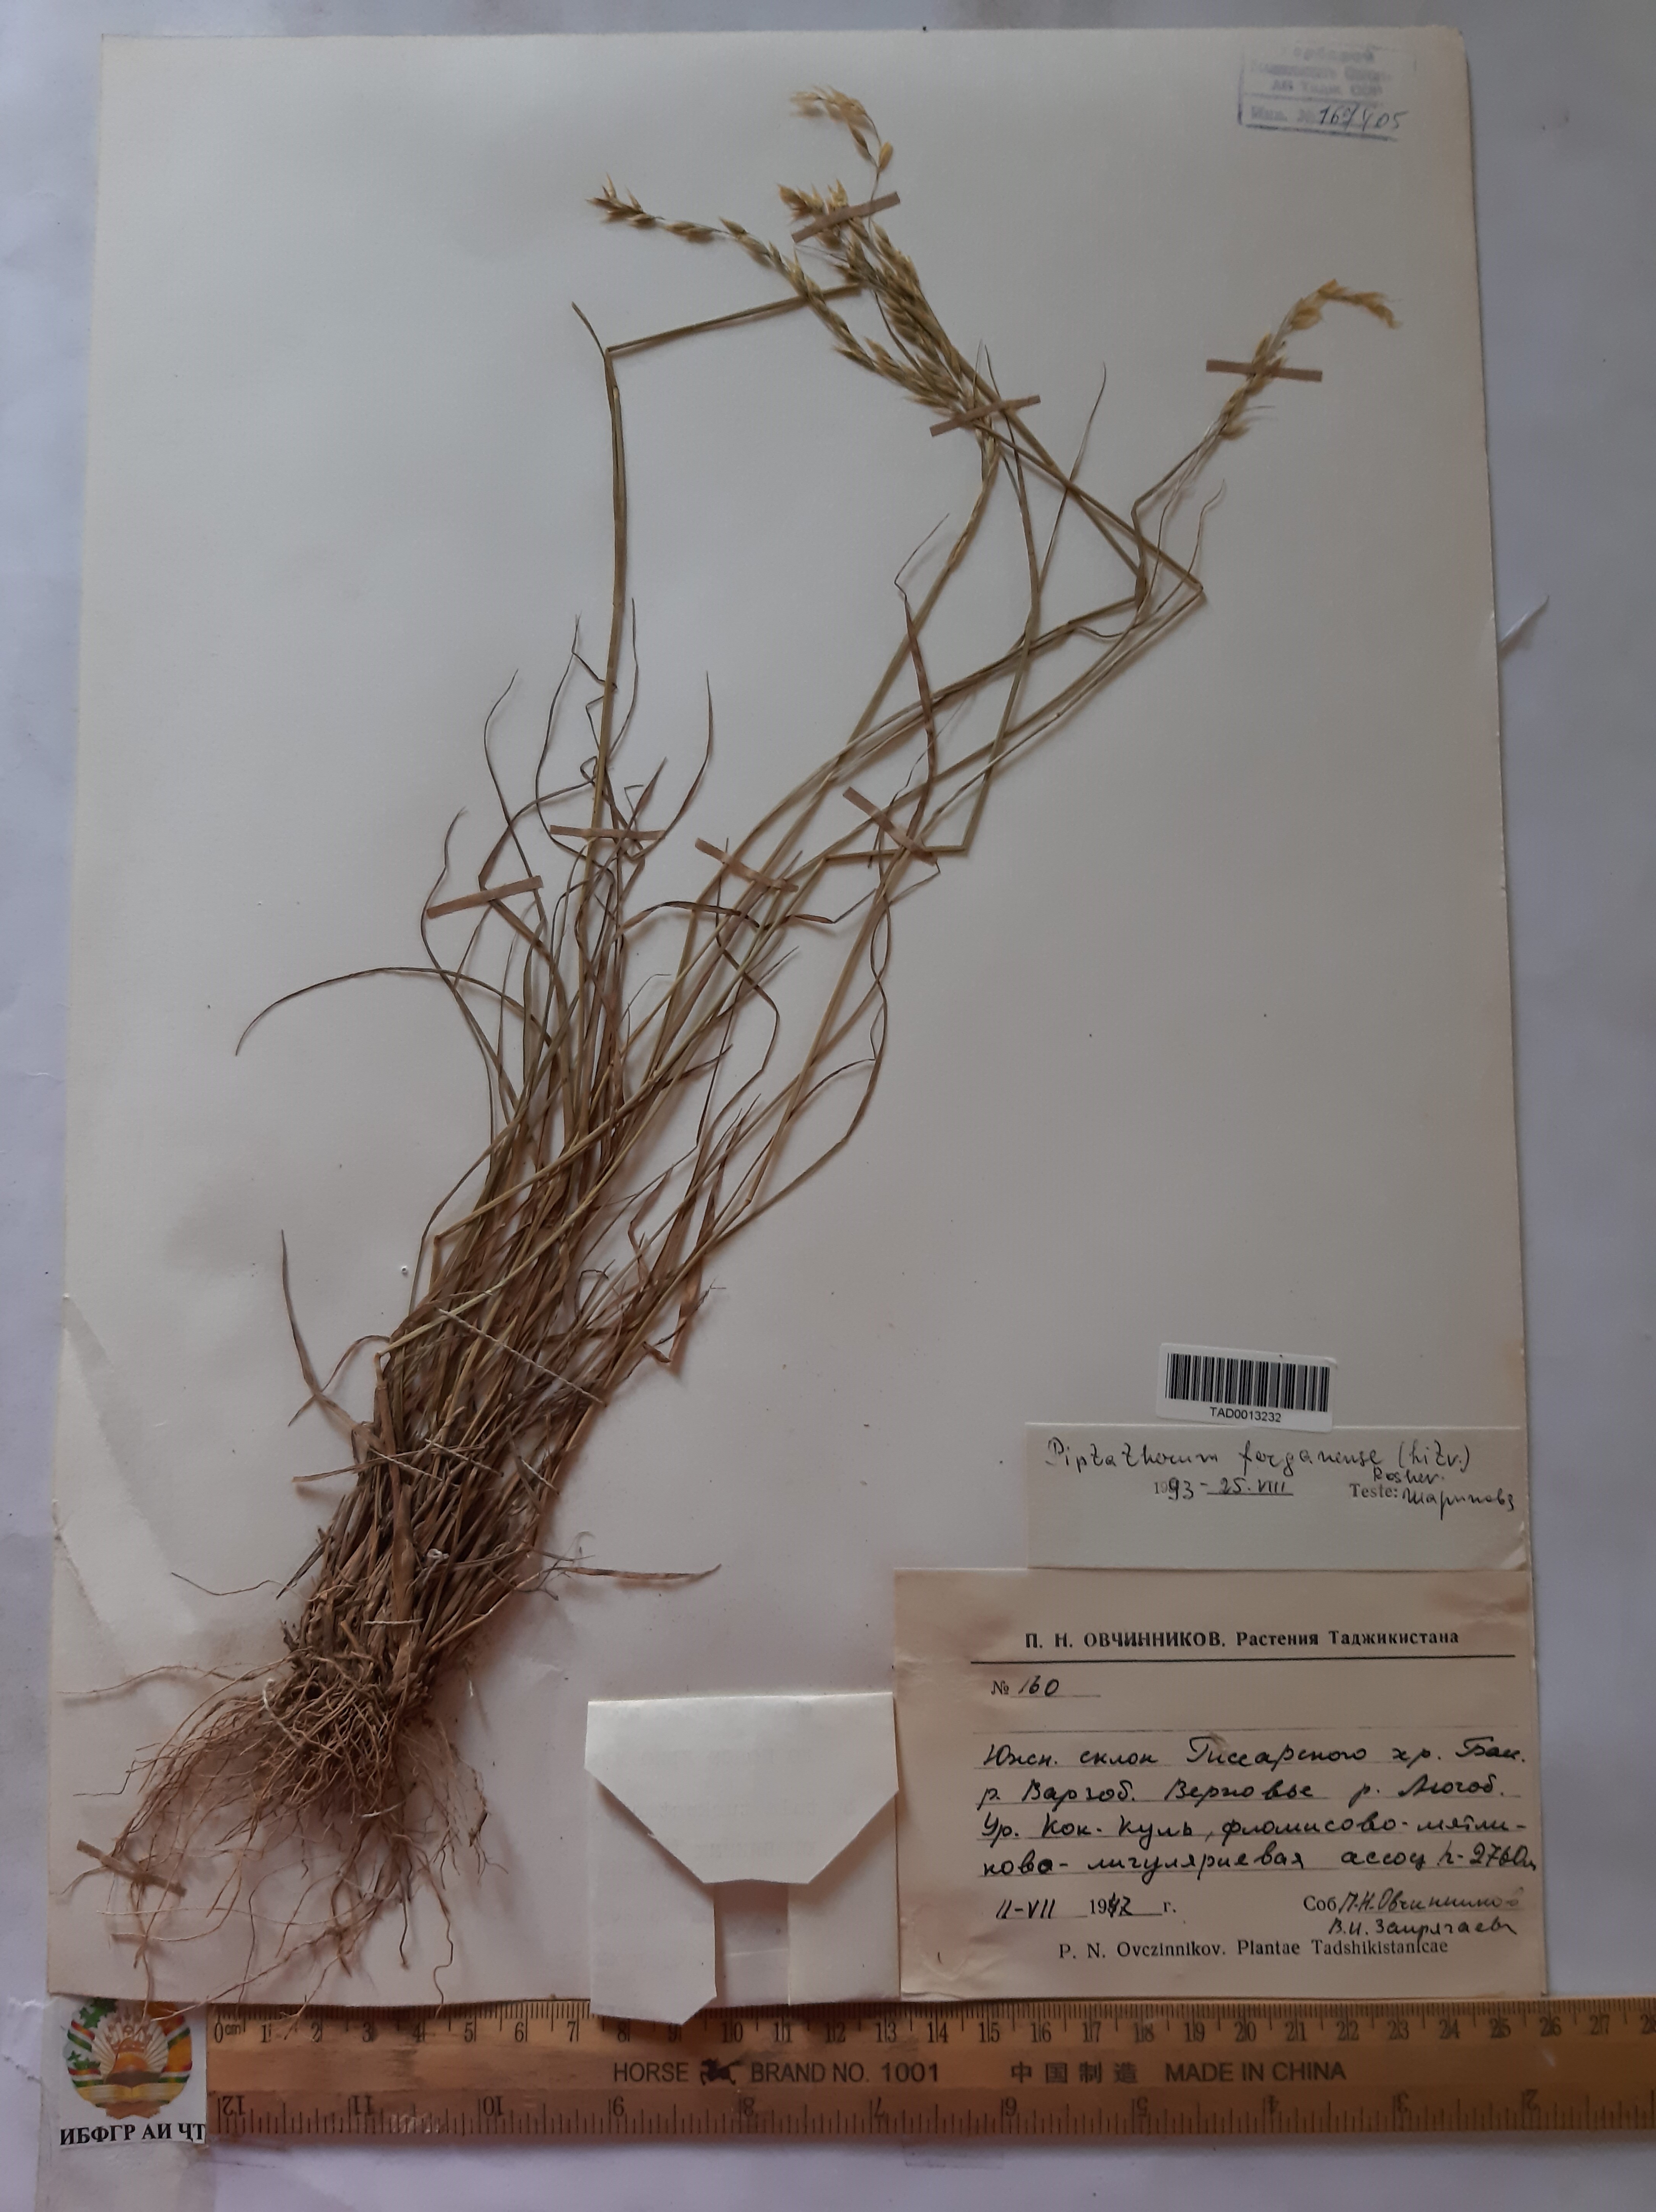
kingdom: Plantae
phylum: Tracheophyta
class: Liliopsida
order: Poales
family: Poaceae
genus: Piptatherum
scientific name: Piptatherum ferganense
